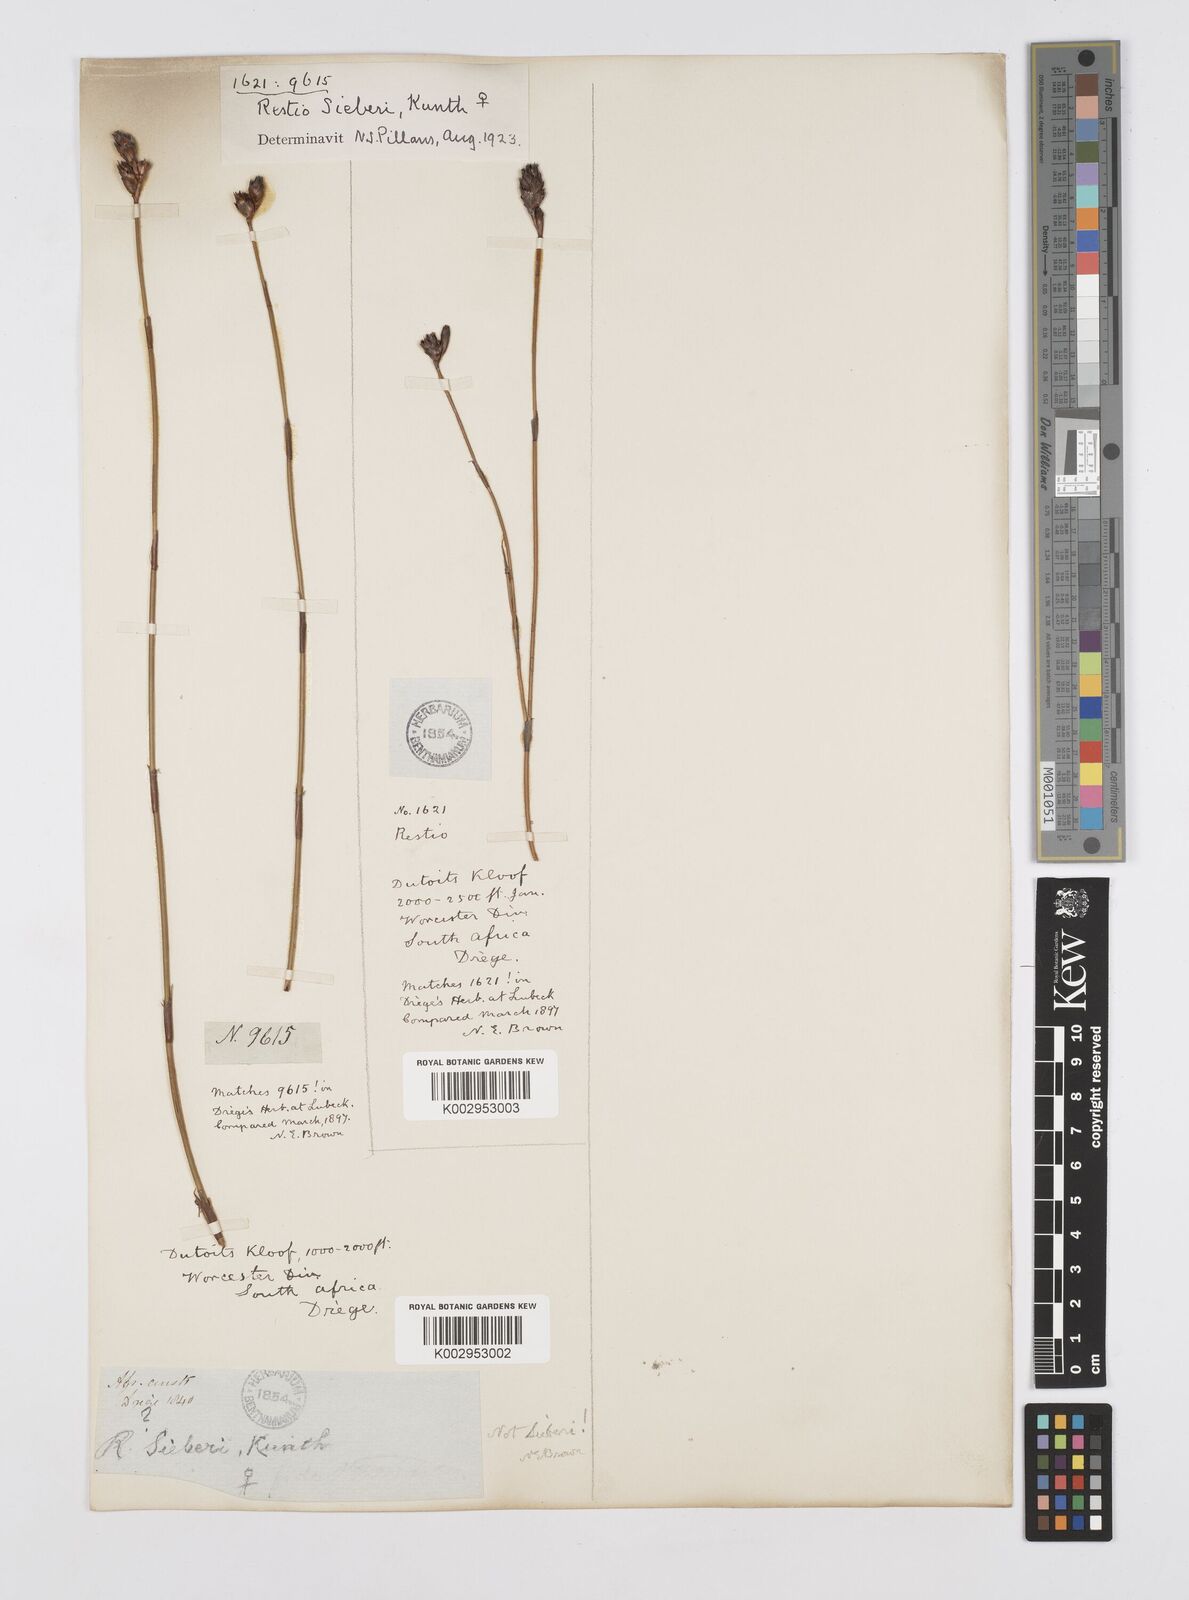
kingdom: Plantae
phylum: Tracheophyta
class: Liliopsida
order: Poales
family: Restionaceae
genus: Restio
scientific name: Restio sieberi
